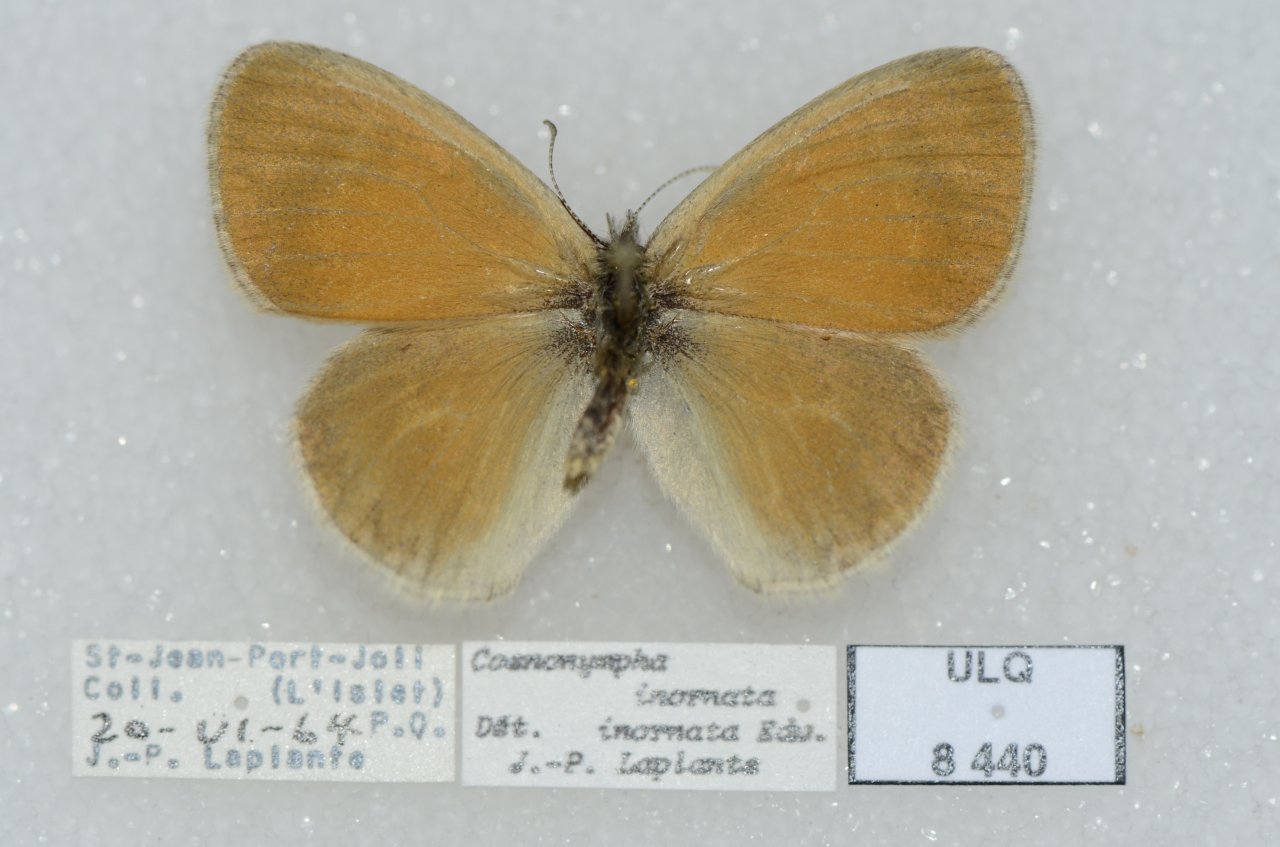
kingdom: Animalia
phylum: Arthropoda
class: Insecta
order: Lepidoptera
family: Nymphalidae
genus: Coenonympha
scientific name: Coenonympha tullia
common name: Large Heath
